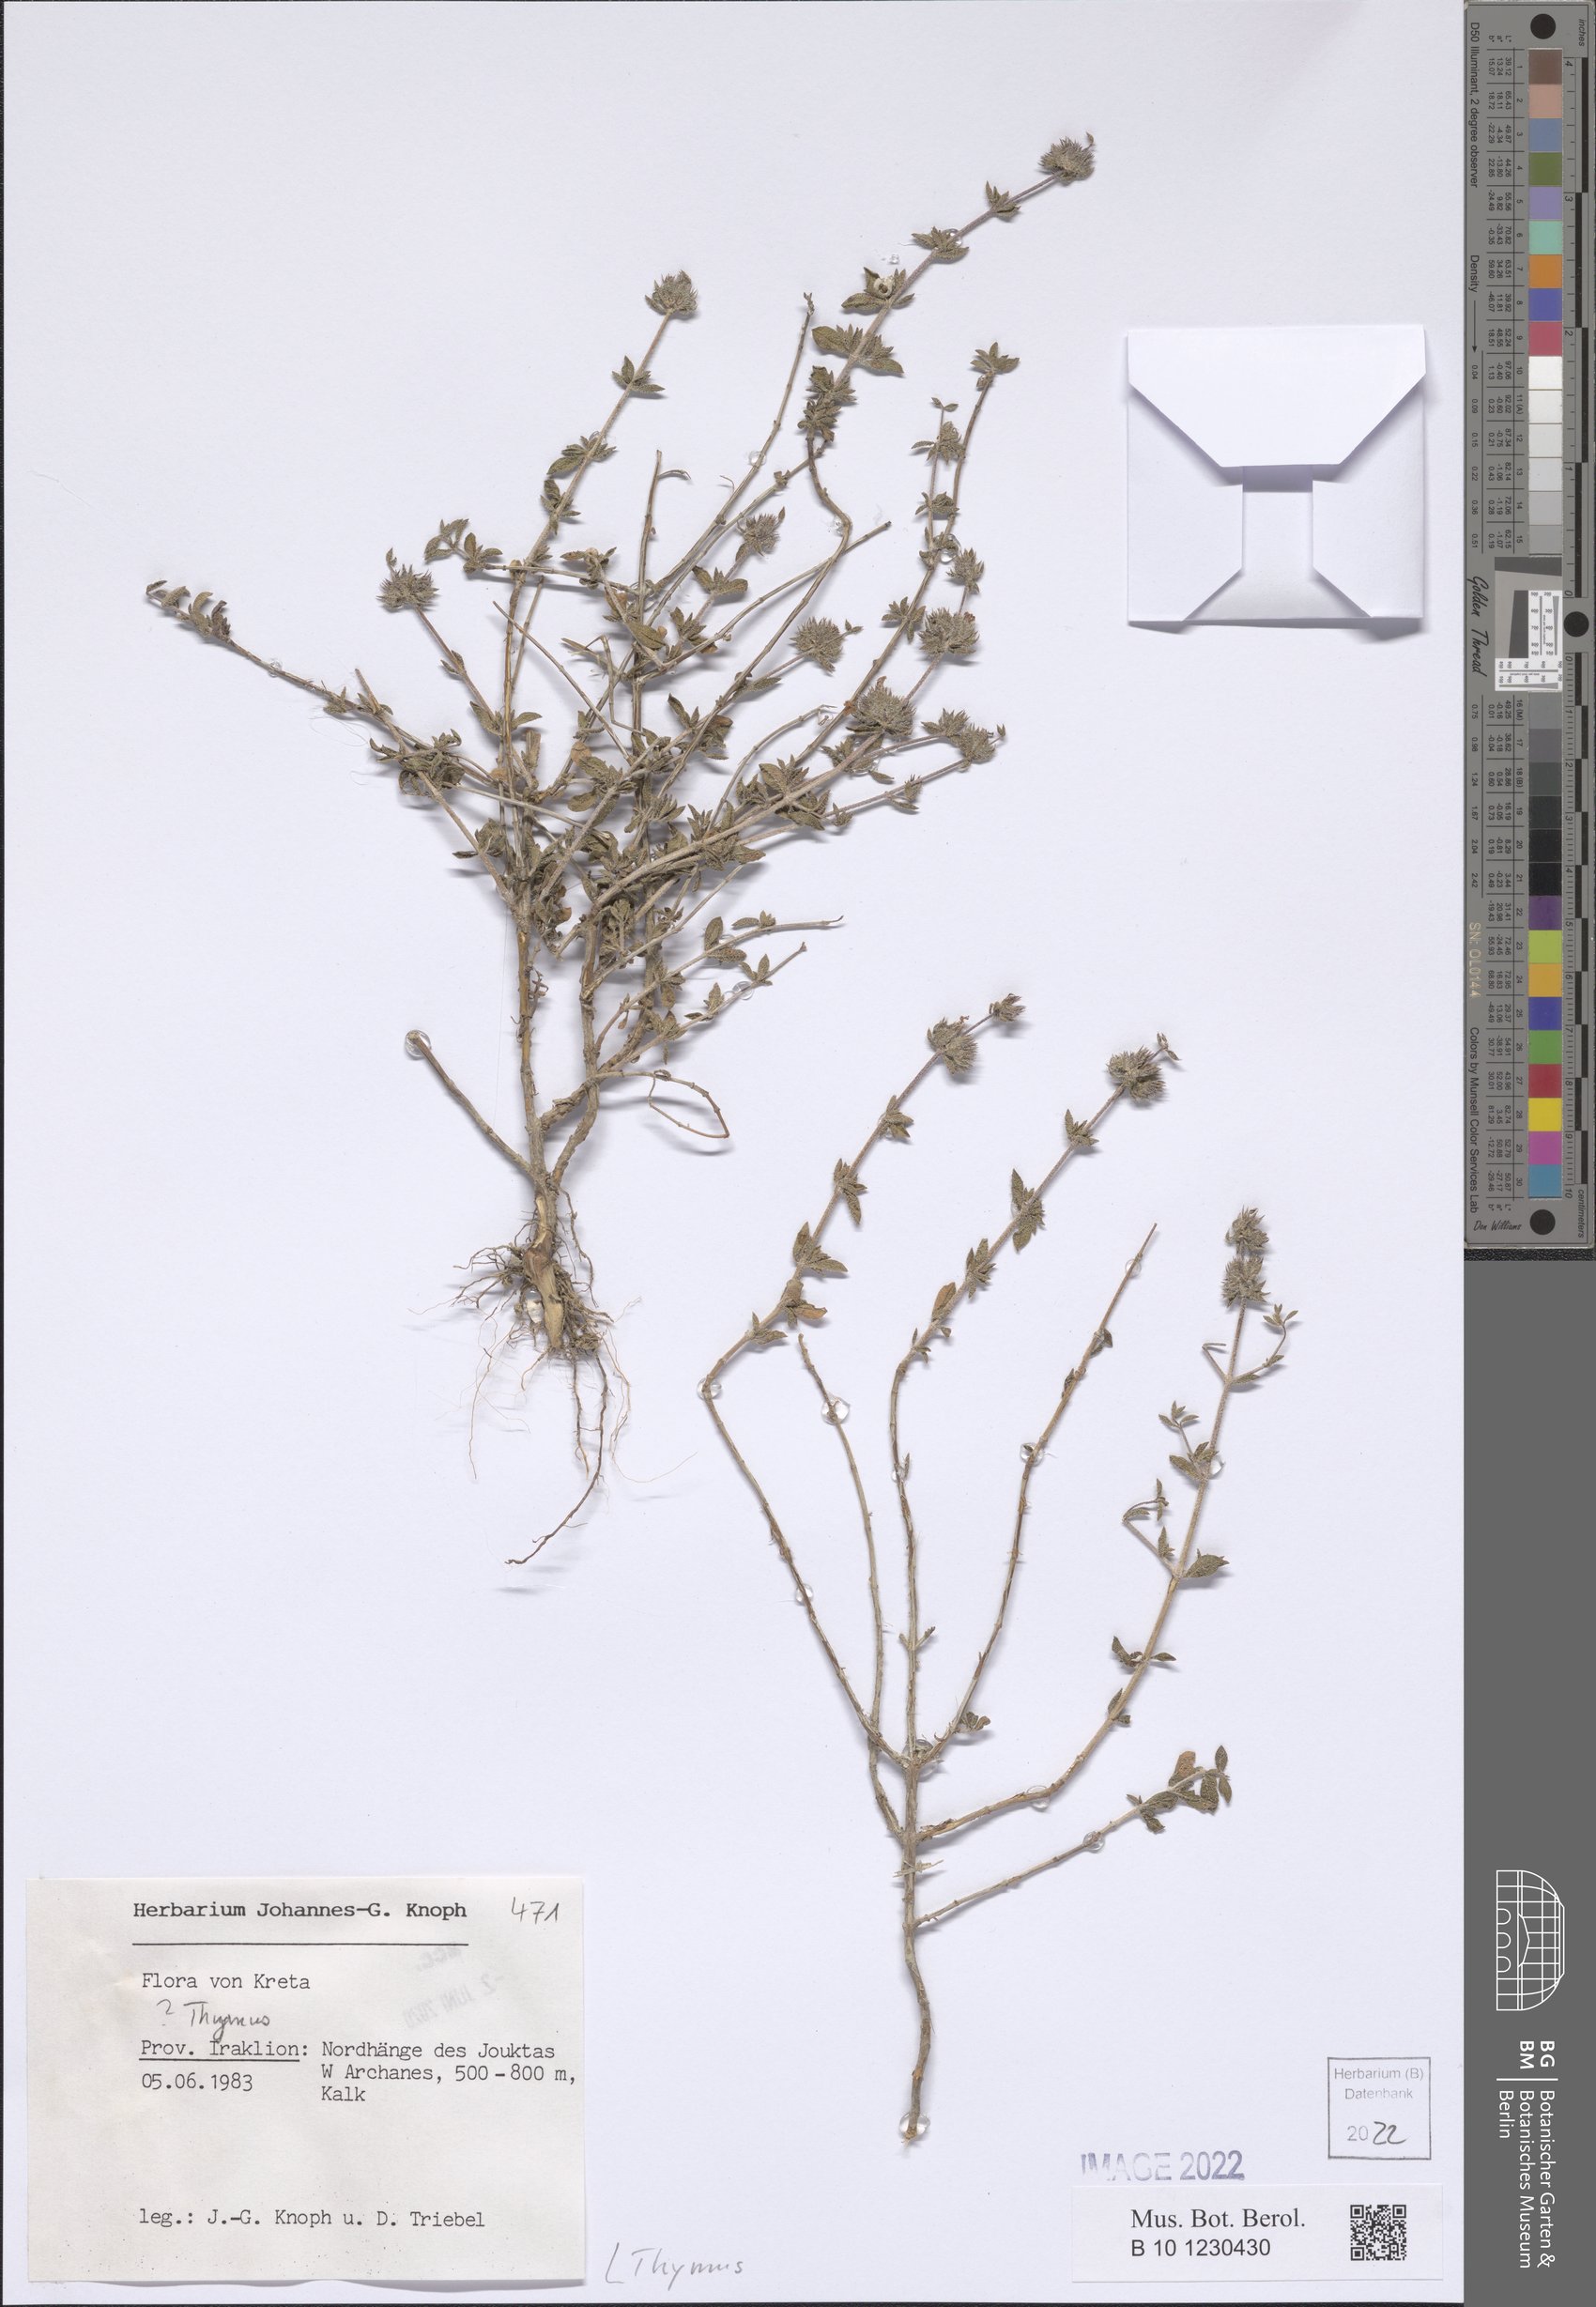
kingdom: Plantae
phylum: Tracheophyta
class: Magnoliopsida
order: Lamiales
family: Lamiaceae
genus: Thymus
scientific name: Thymus
